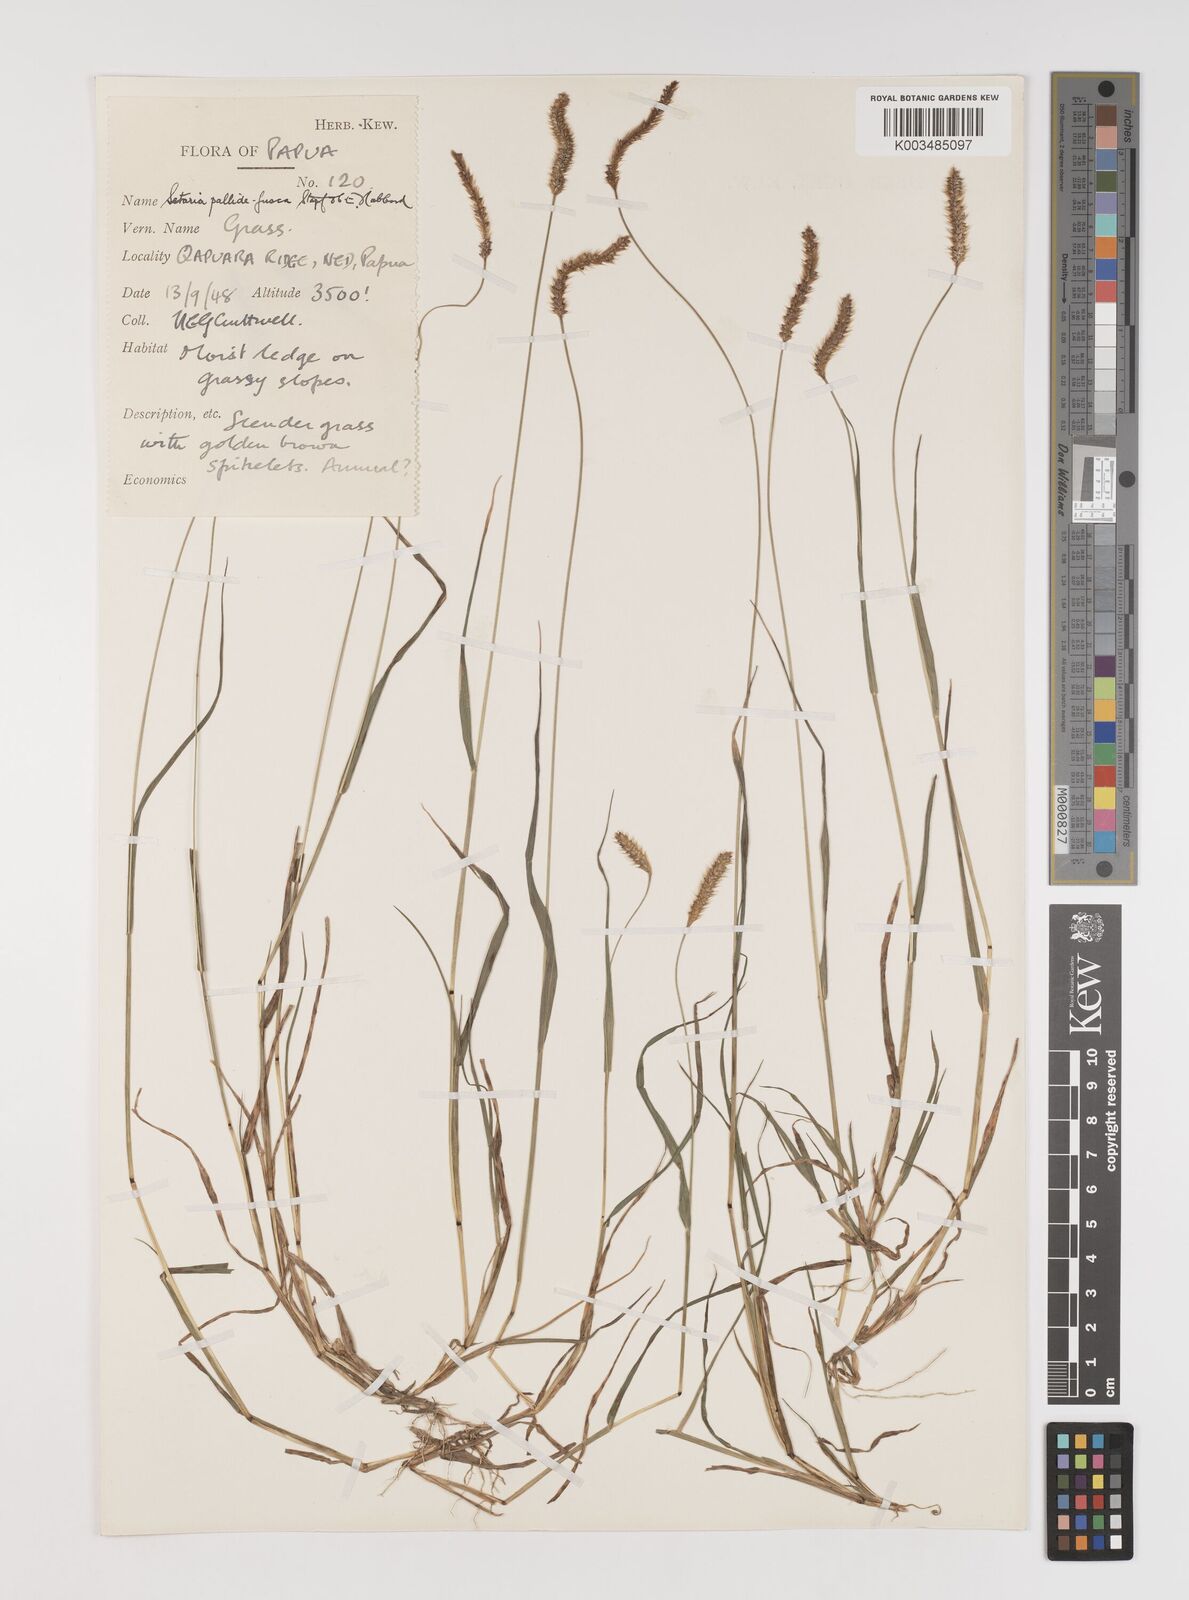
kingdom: Plantae
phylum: Tracheophyta
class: Liliopsida
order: Poales
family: Poaceae
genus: Setaria
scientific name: Setaria pumila
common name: Yellow bristle-grass
